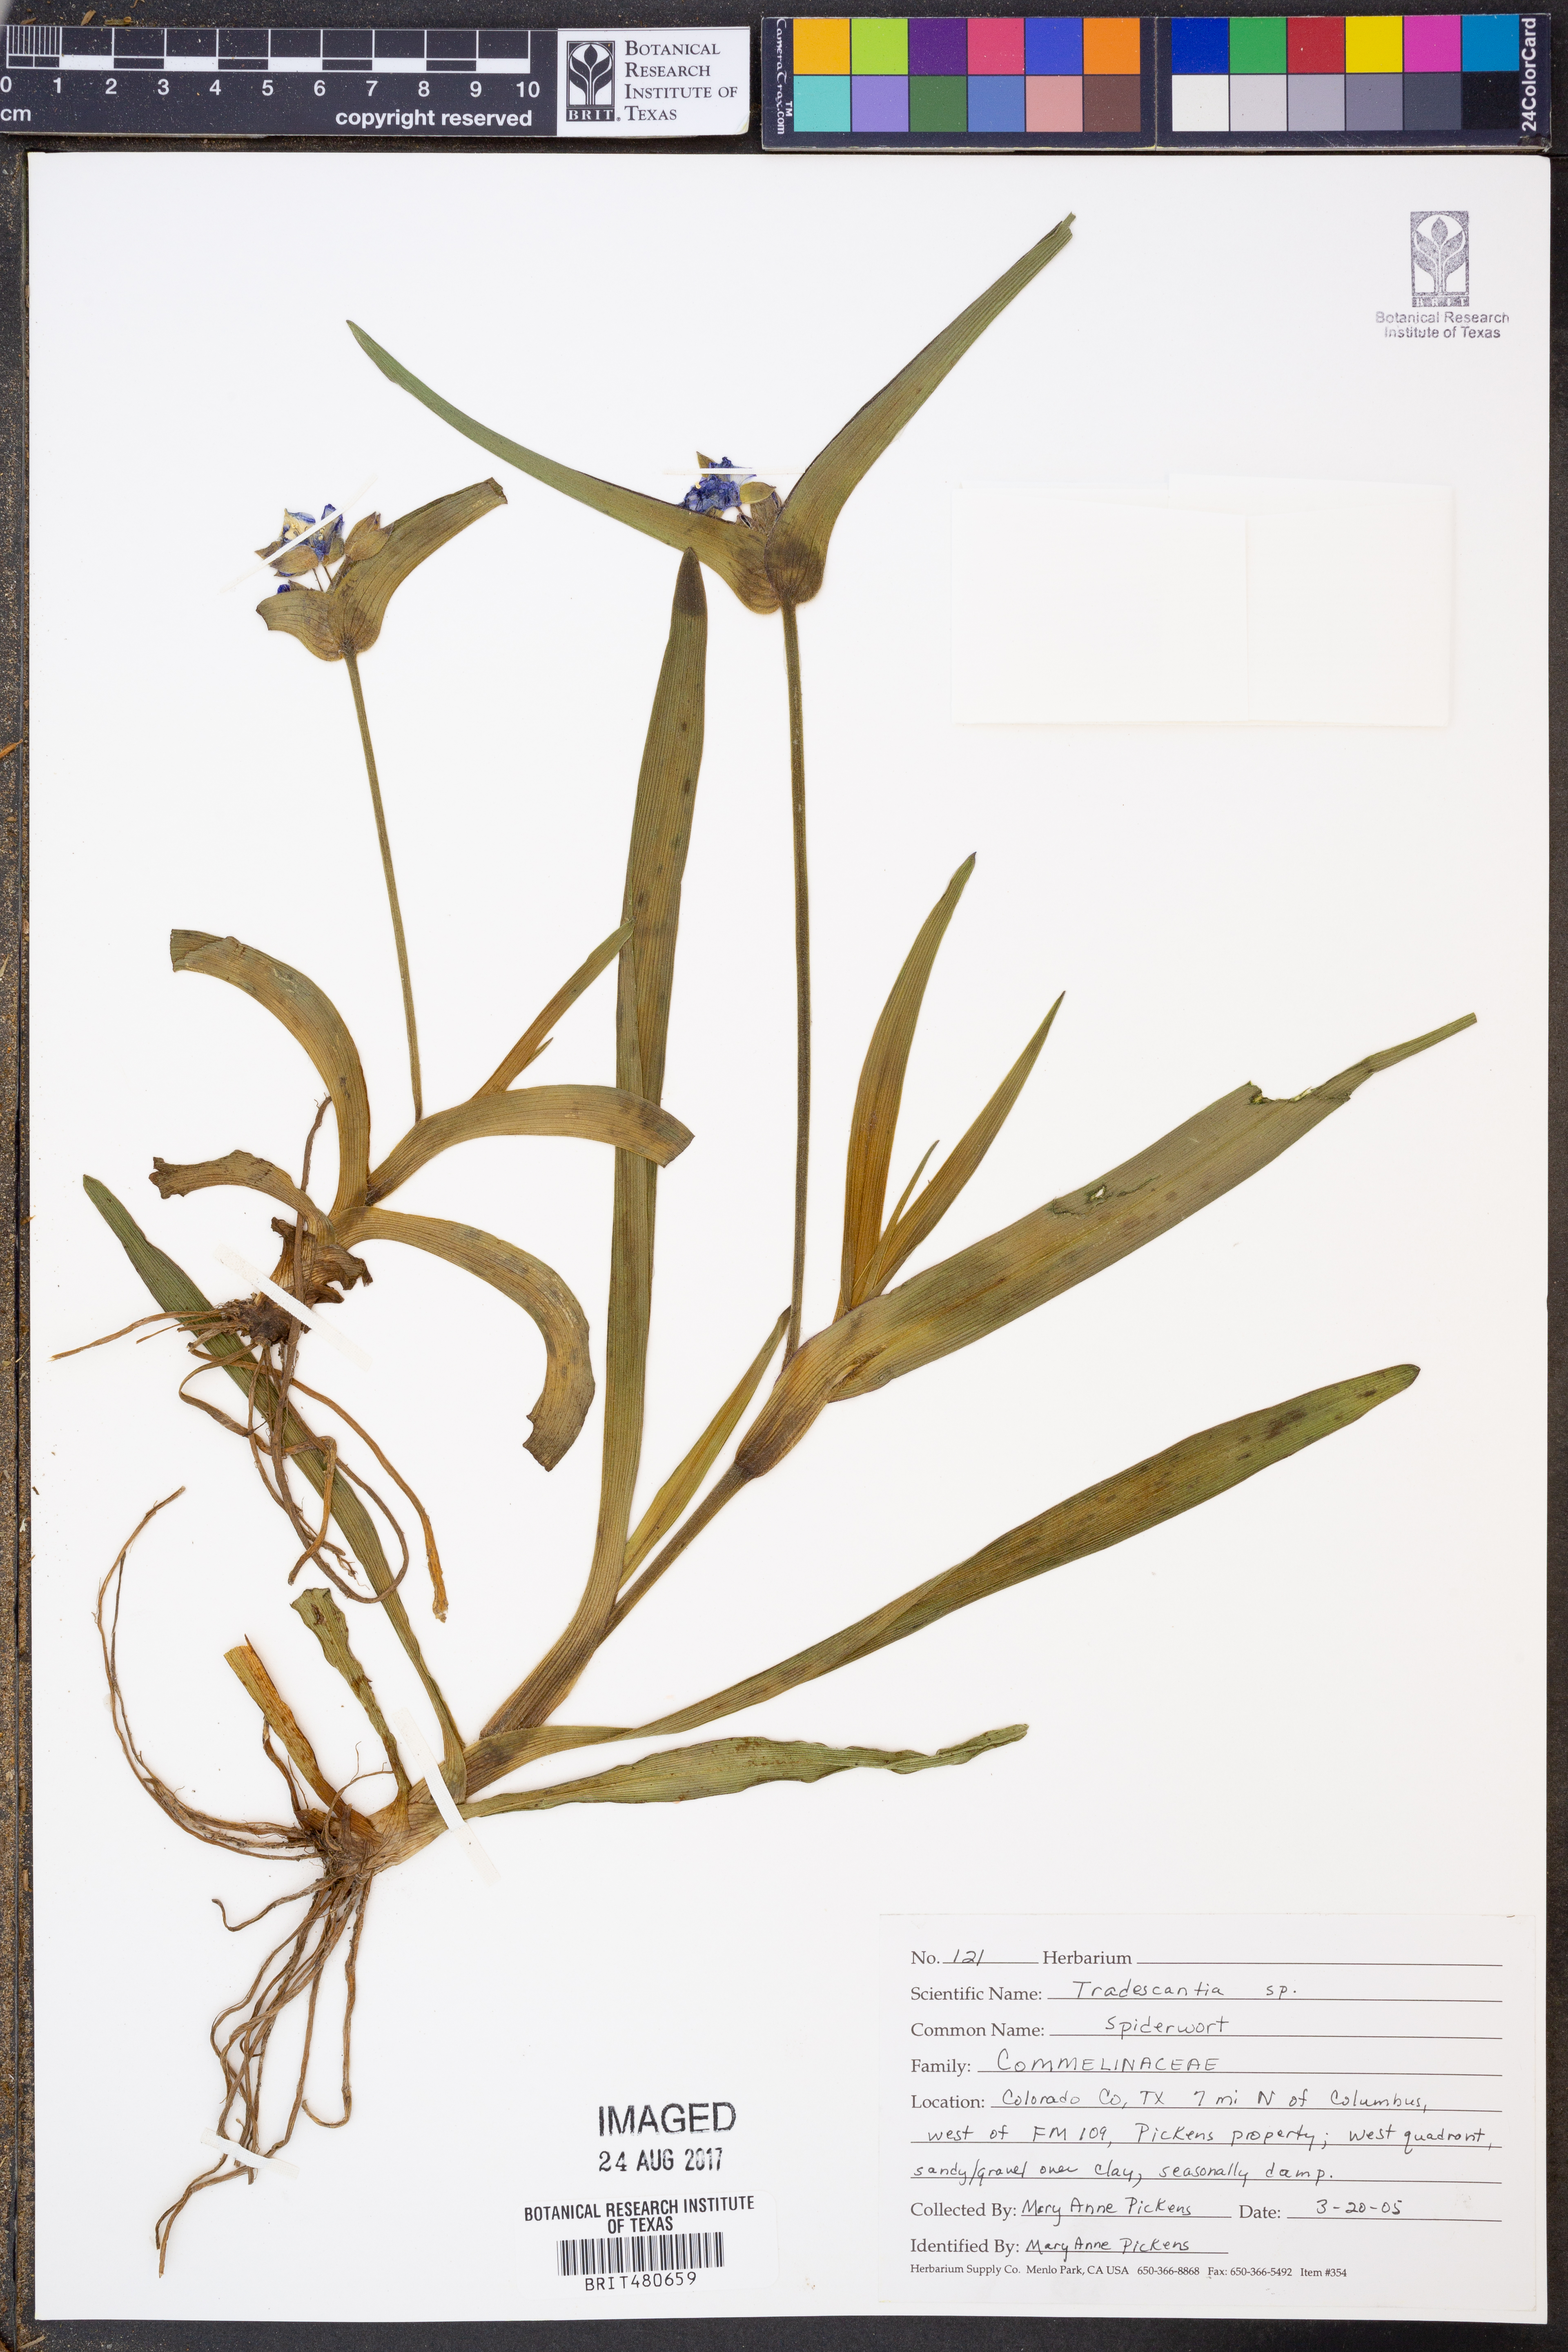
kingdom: Plantae
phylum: Tracheophyta
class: Liliopsida
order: Commelinales
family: Commelinaceae
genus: Tradescantia
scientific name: Tradescantia
